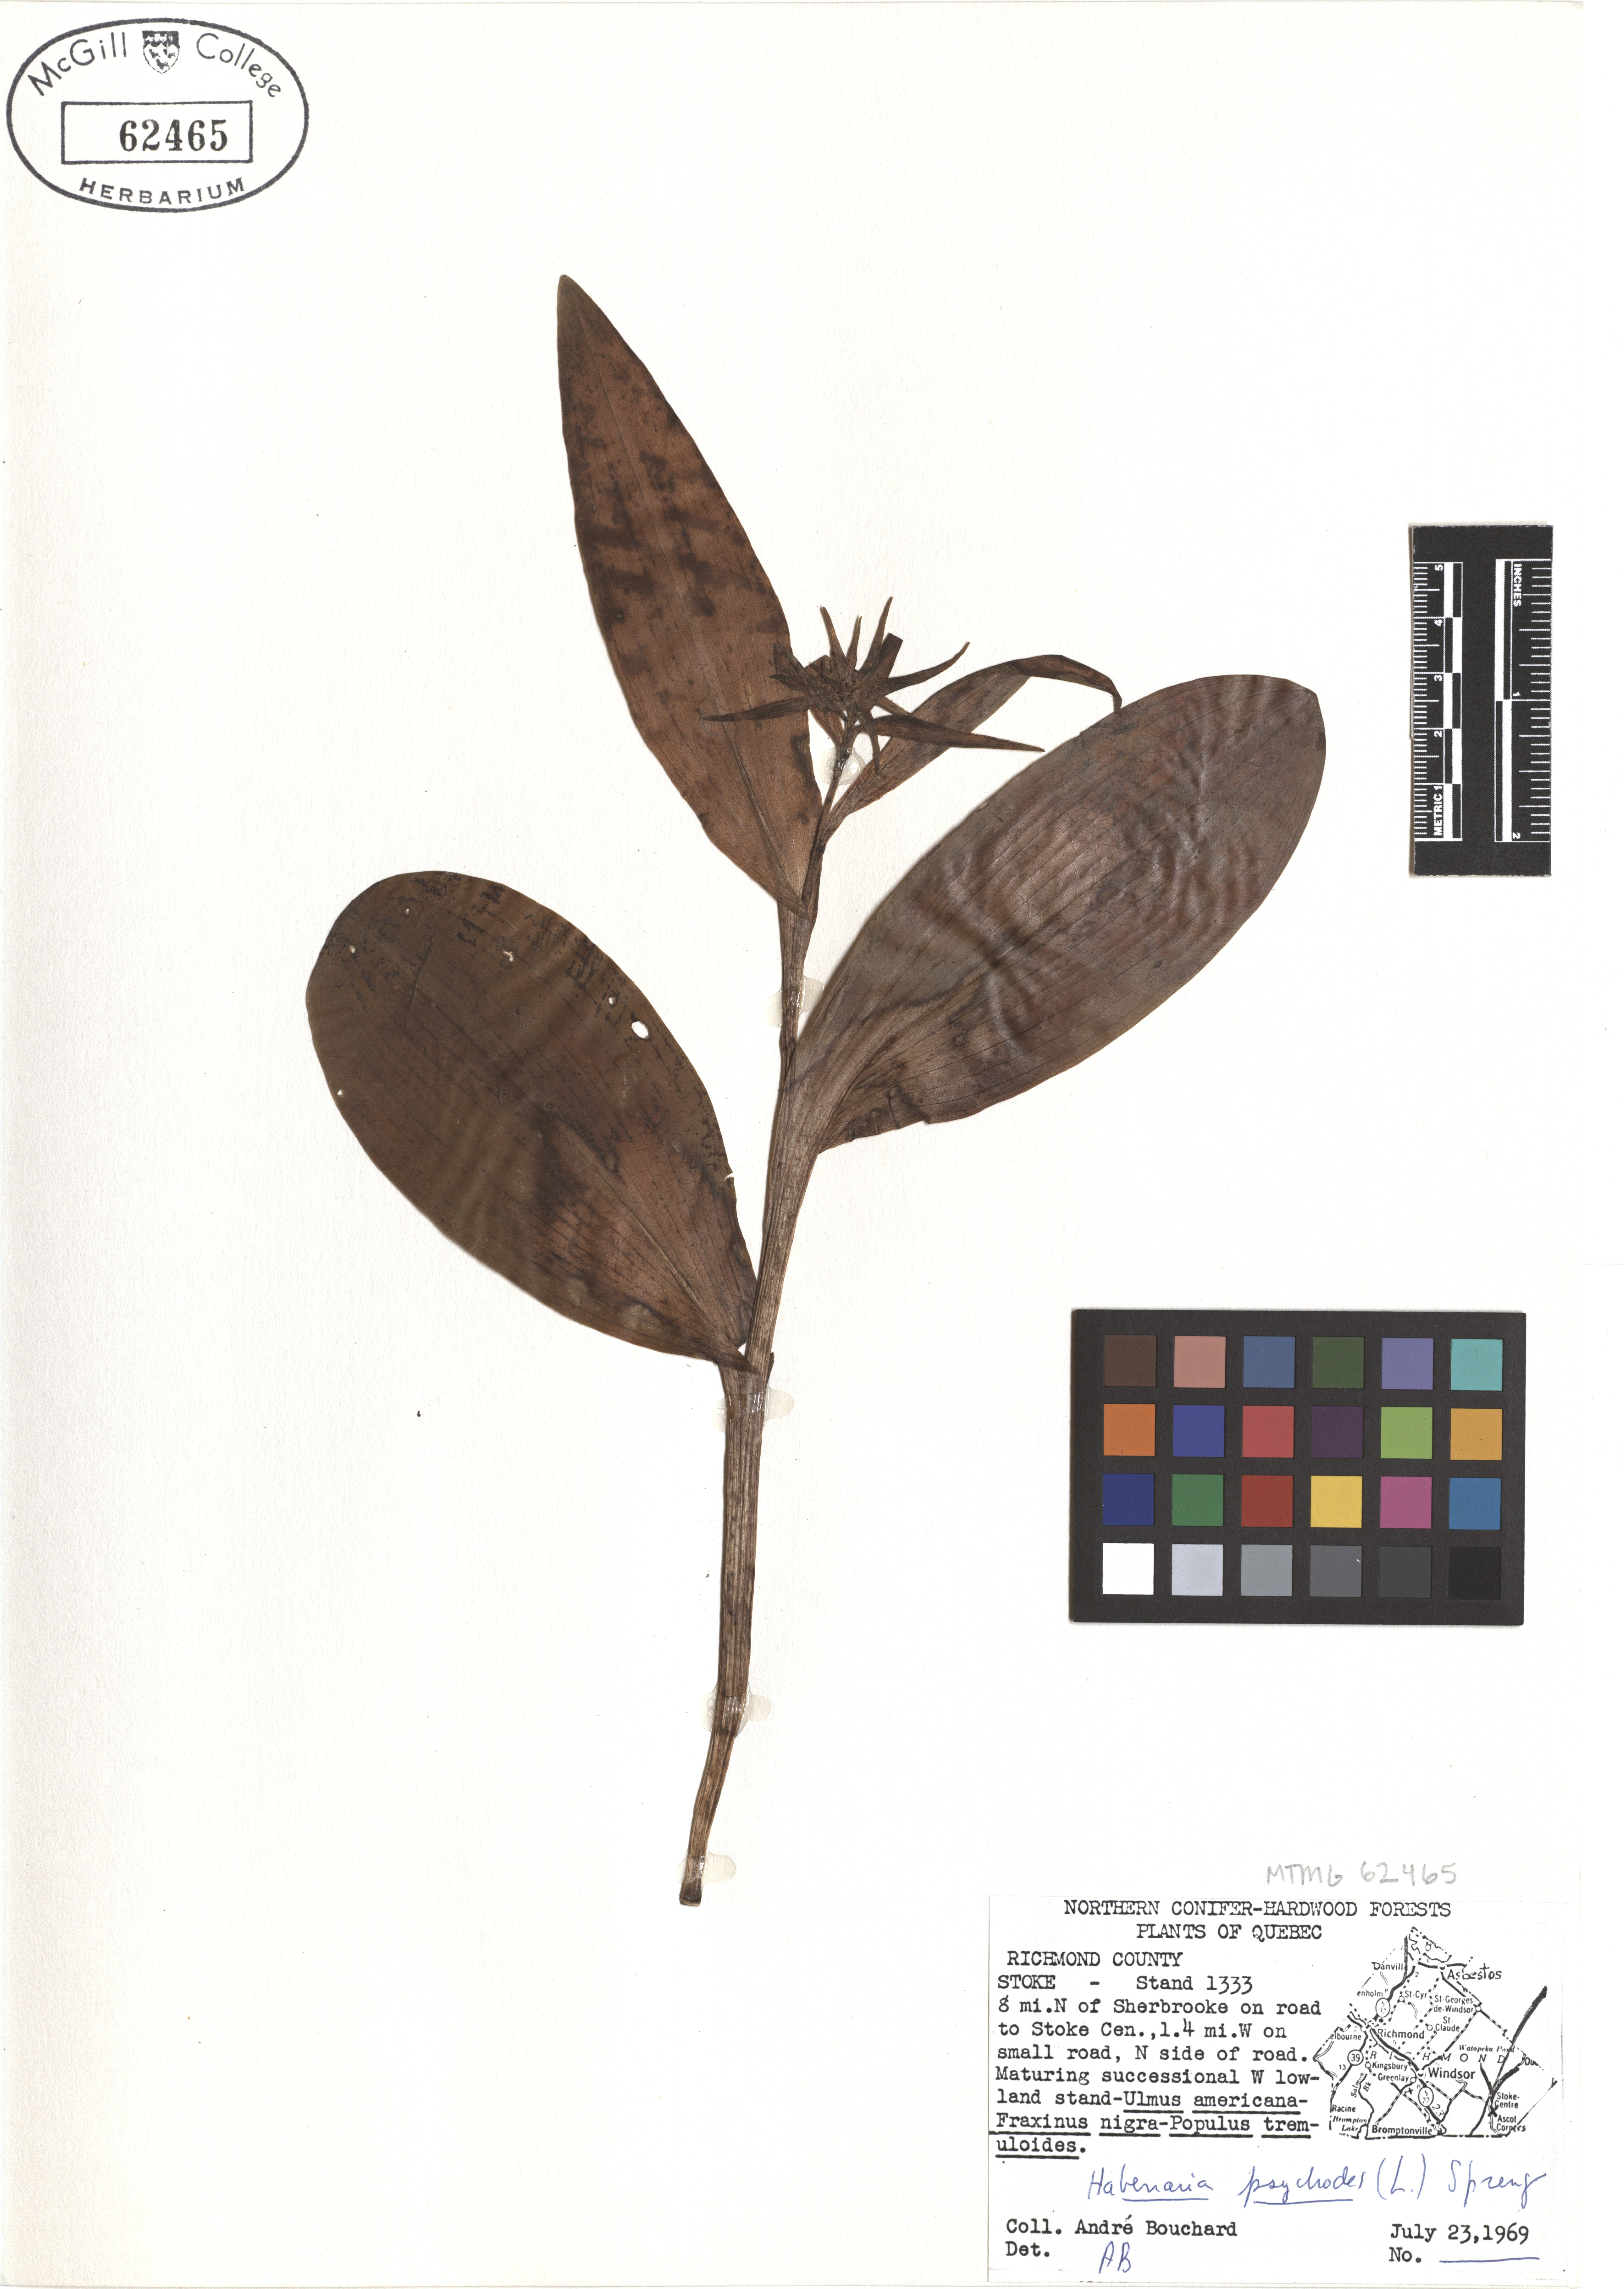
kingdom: Plantae
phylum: Tracheophyta
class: Liliopsida
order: Asparagales
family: Orchidaceae
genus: Platanthera
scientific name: Platanthera psycodes
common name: Lesser purple fringed orchid
